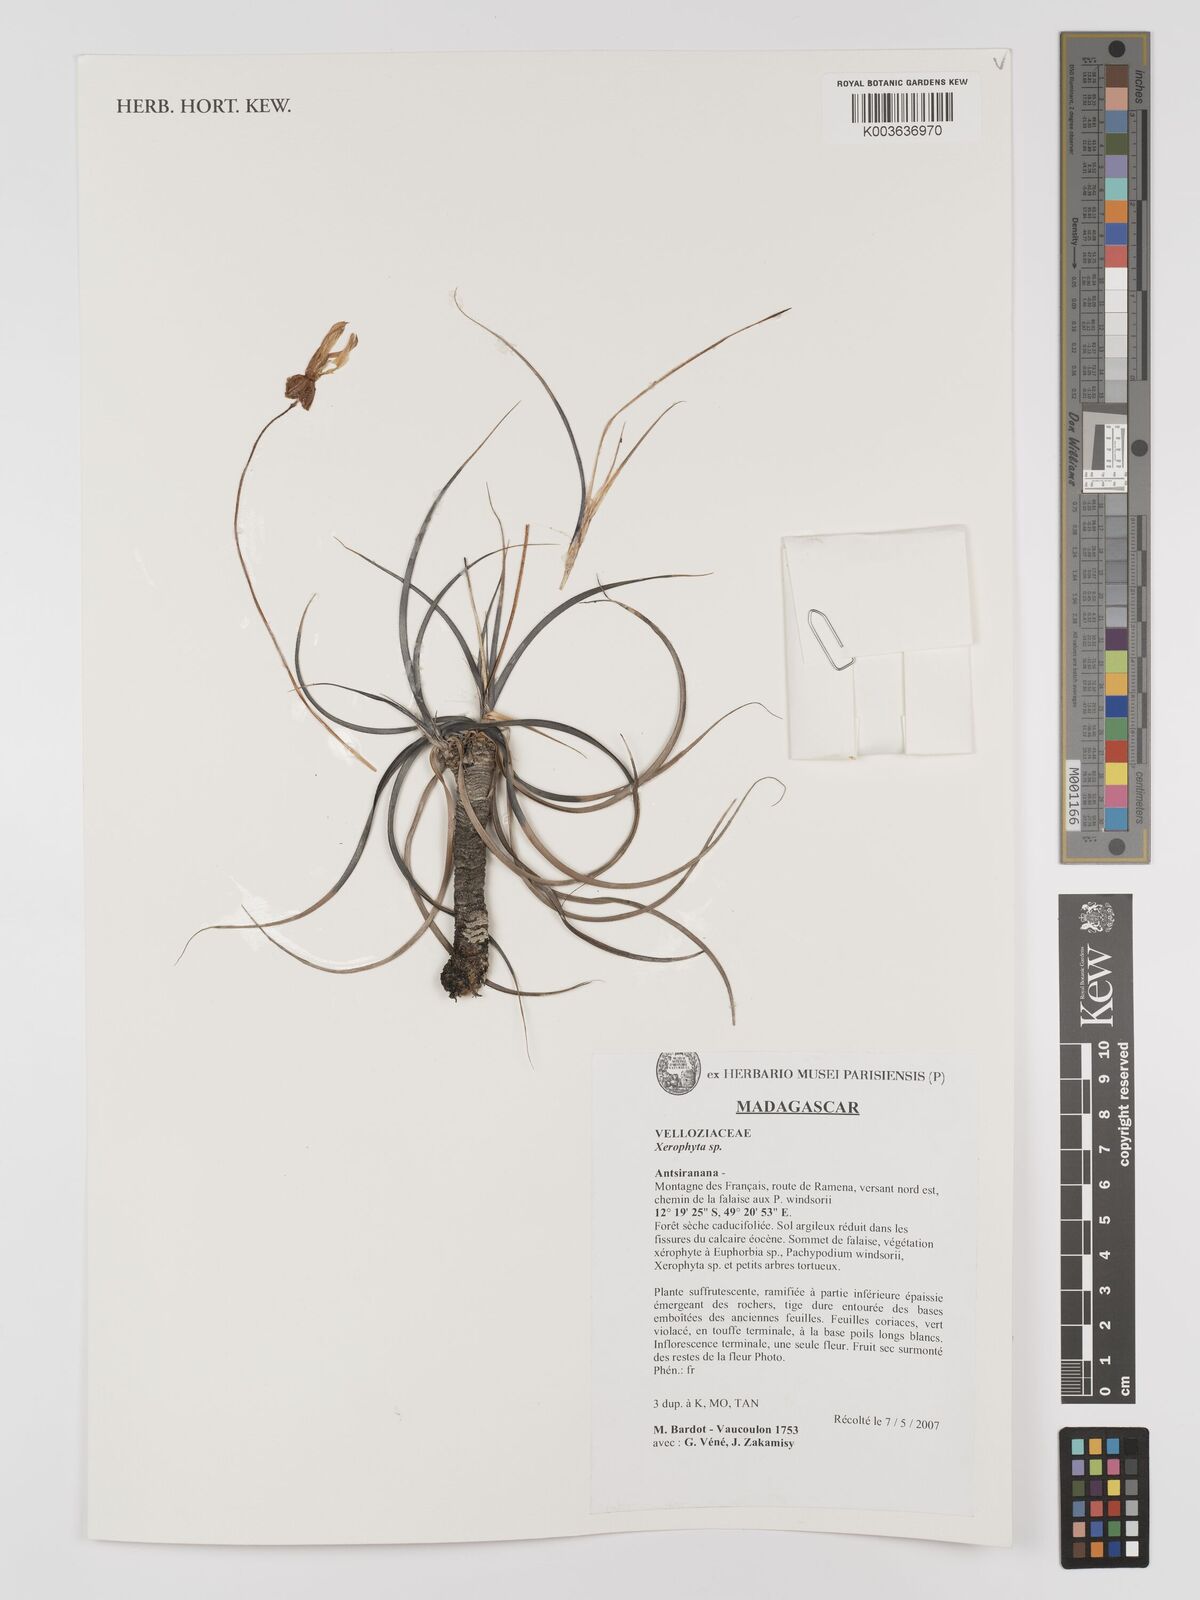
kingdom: Plantae
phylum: Tracheophyta
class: Liliopsida
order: Pandanales
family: Velloziaceae
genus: Xerophyta
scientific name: Xerophyta
